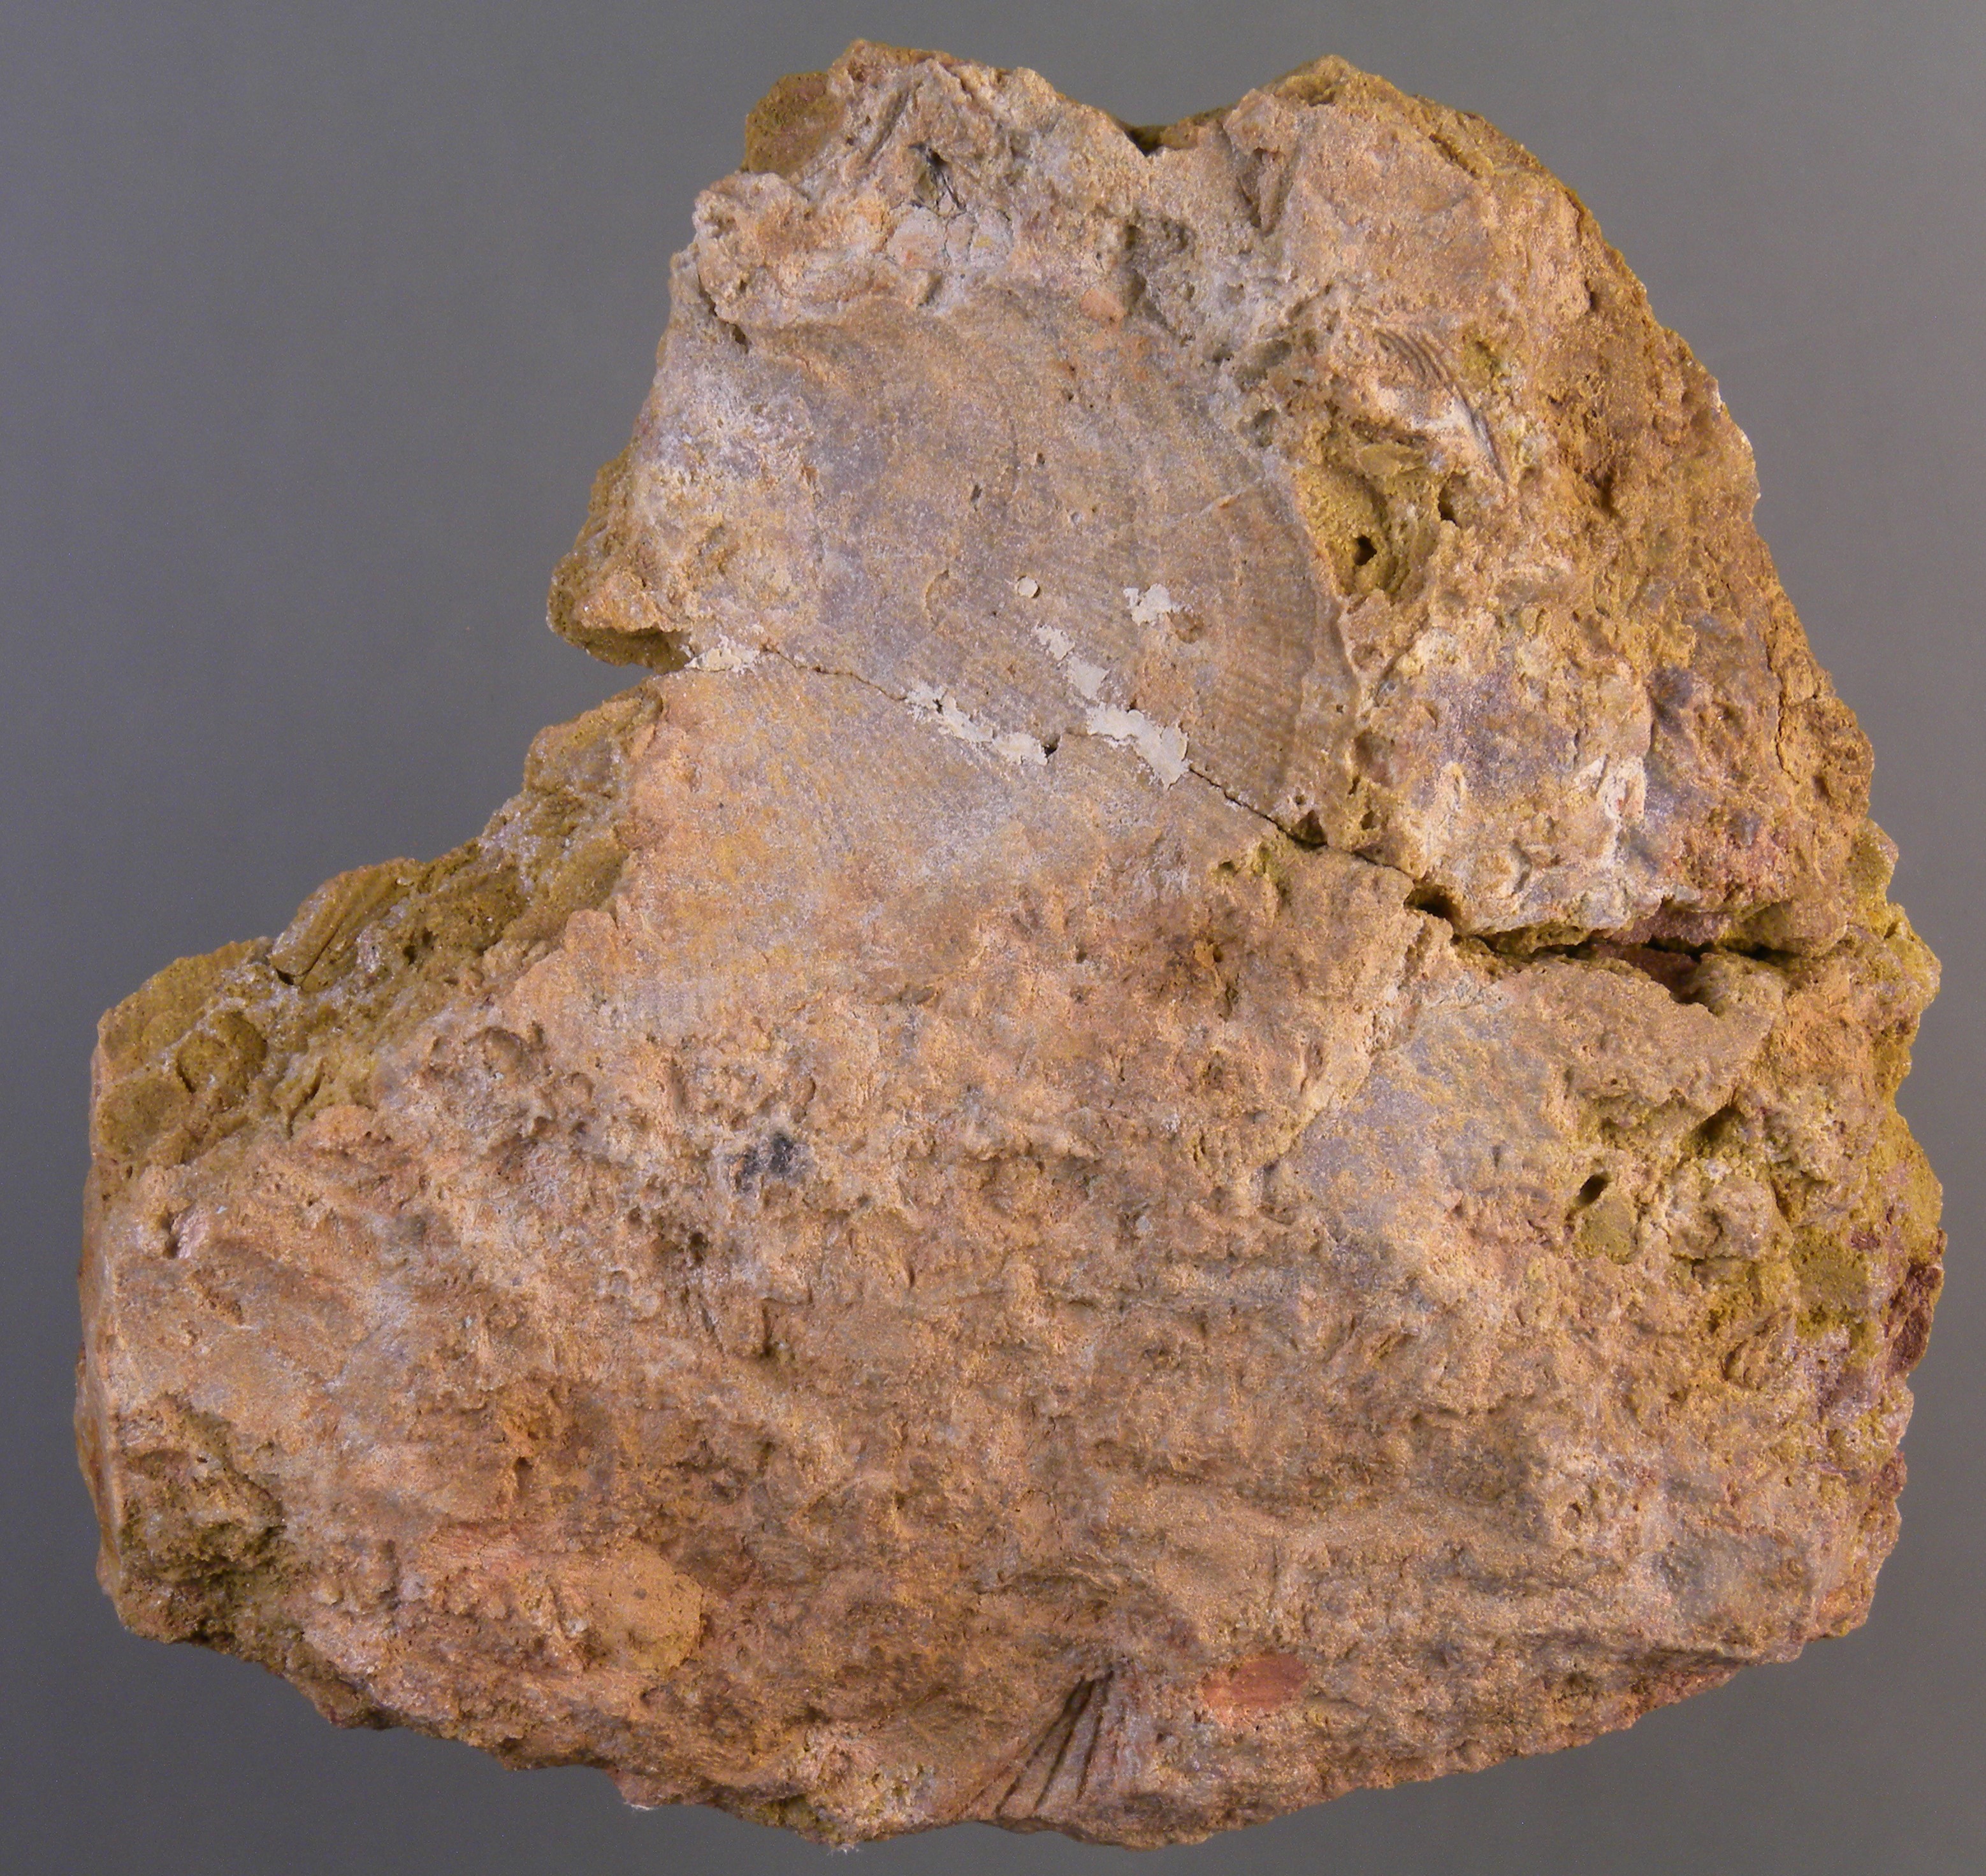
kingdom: Animalia
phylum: Mollusca
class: Bivalvia
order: Ostreida
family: Pterineidae
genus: Limoptera
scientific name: Limoptera
